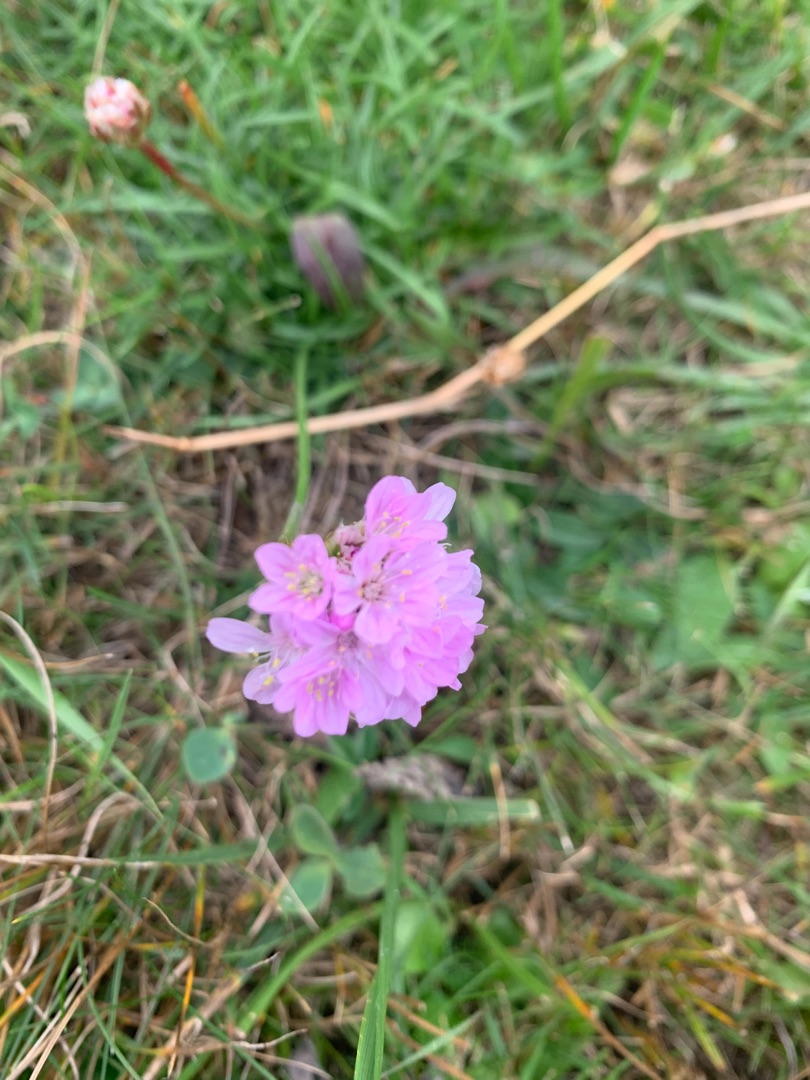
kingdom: Plantae
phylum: Tracheophyta
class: Magnoliopsida
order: Caryophyllales
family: Plumbaginaceae
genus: Armeria
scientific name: Armeria maritima
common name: Engelskgræs
